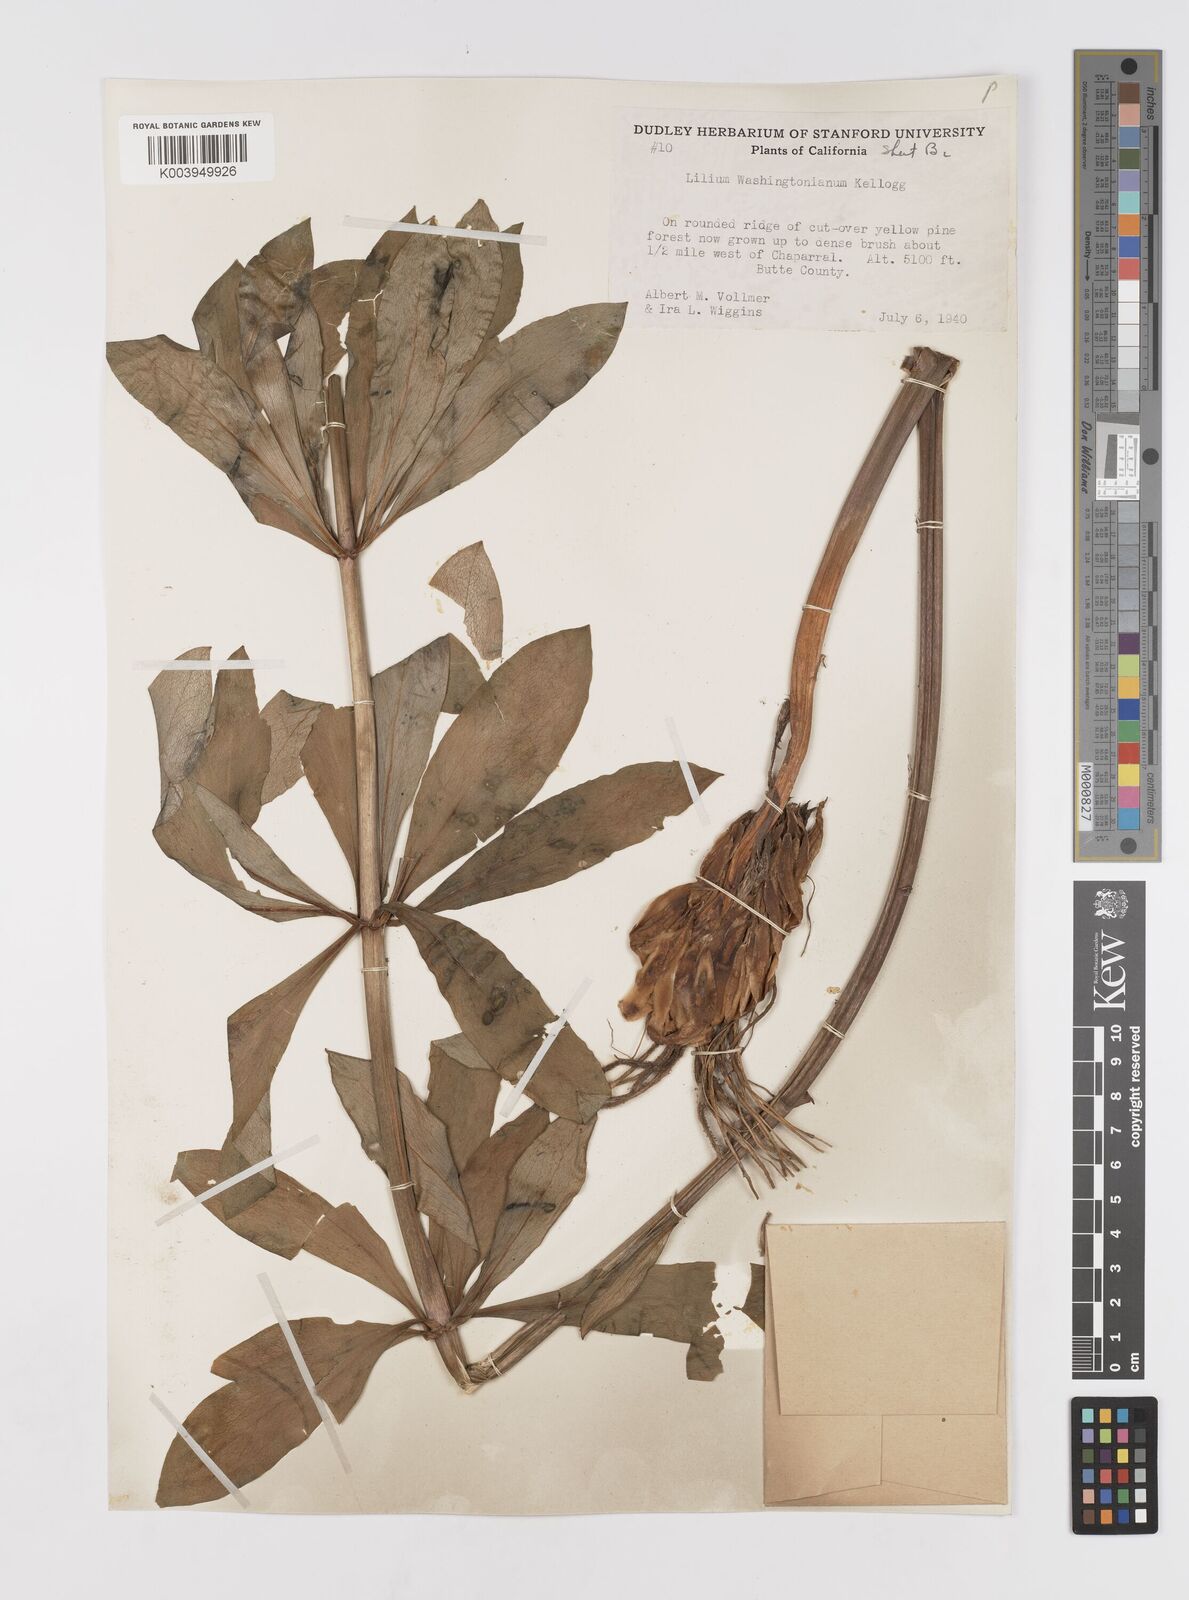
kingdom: Plantae
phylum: Tracheophyta
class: Liliopsida
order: Liliales
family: Liliaceae
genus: Lilium
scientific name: Lilium washingtonianum
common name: Washington lily
